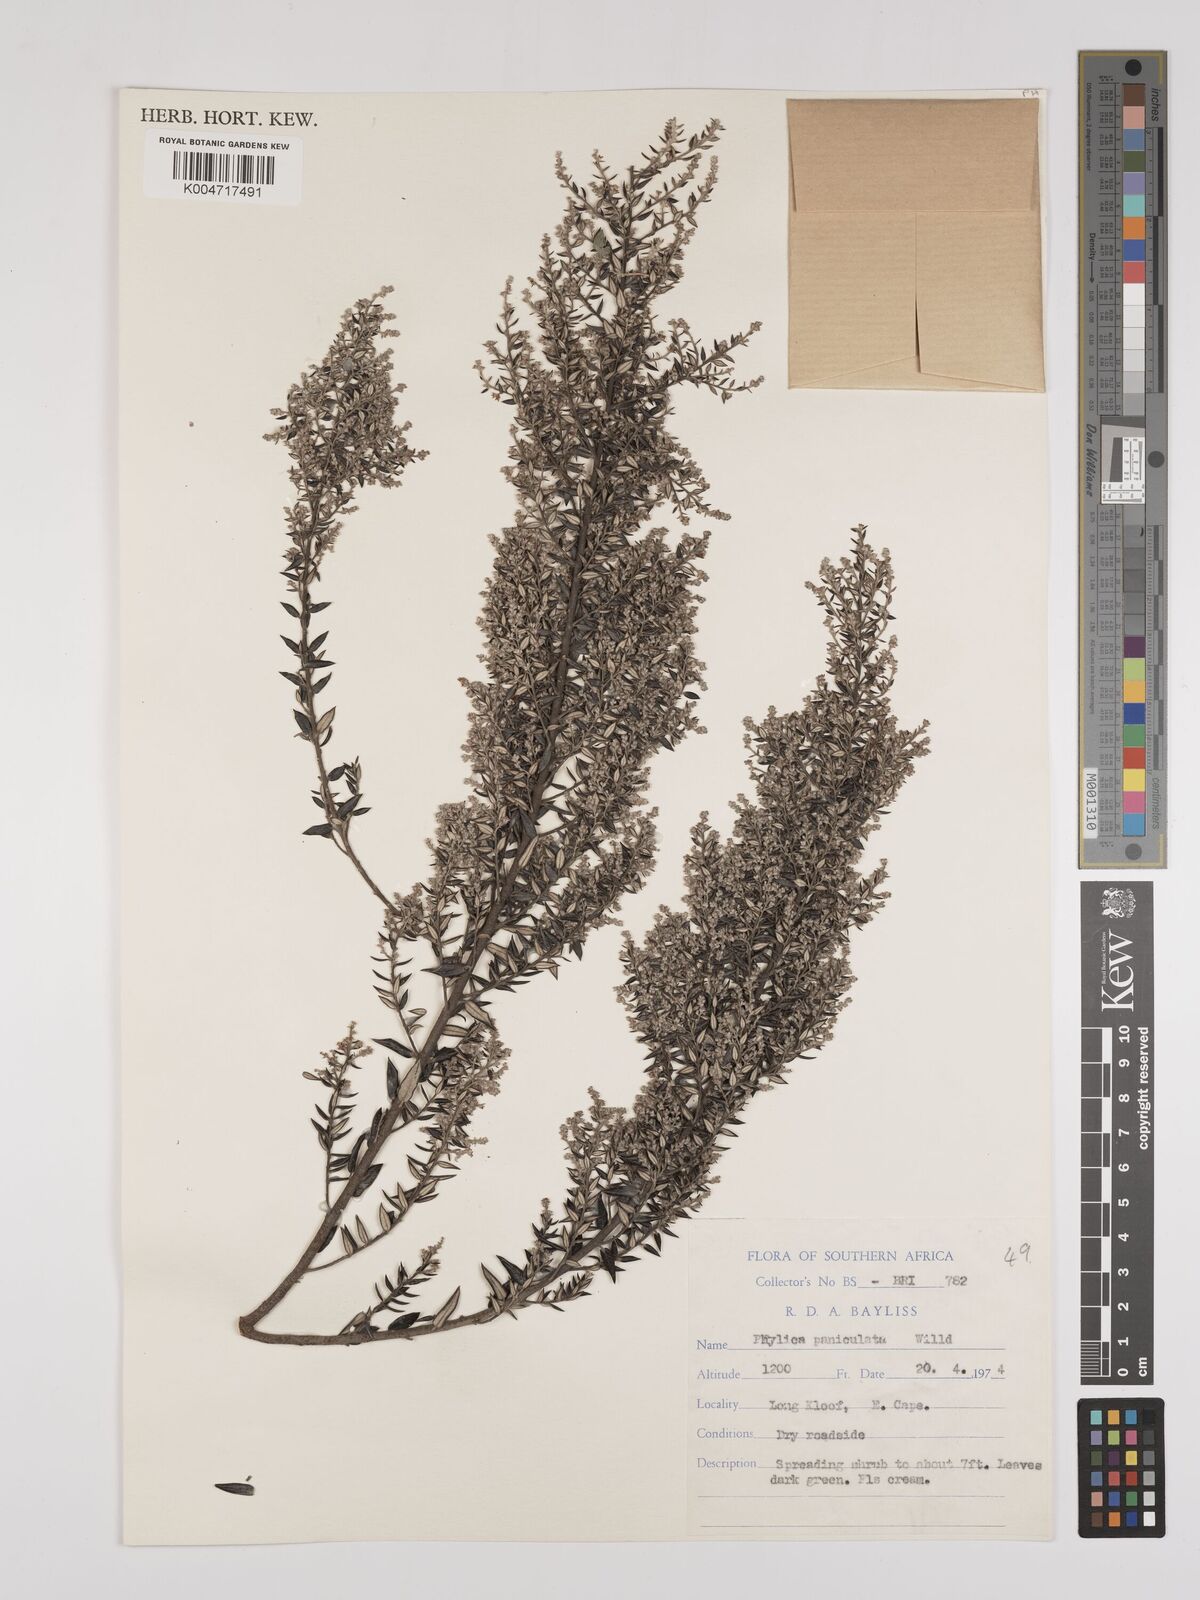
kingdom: Plantae
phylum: Tracheophyta
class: Magnoliopsida
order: Rosales
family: Rhamnaceae
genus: Phylica
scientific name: Phylica paniculata
